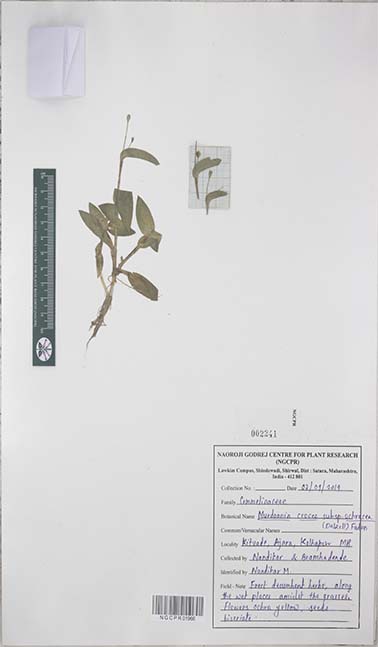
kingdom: Plantae
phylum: Tracheophyta
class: Liliopsida
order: Commelinales
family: Commelinaceae
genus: Murdannia
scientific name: Murdannia crocea
